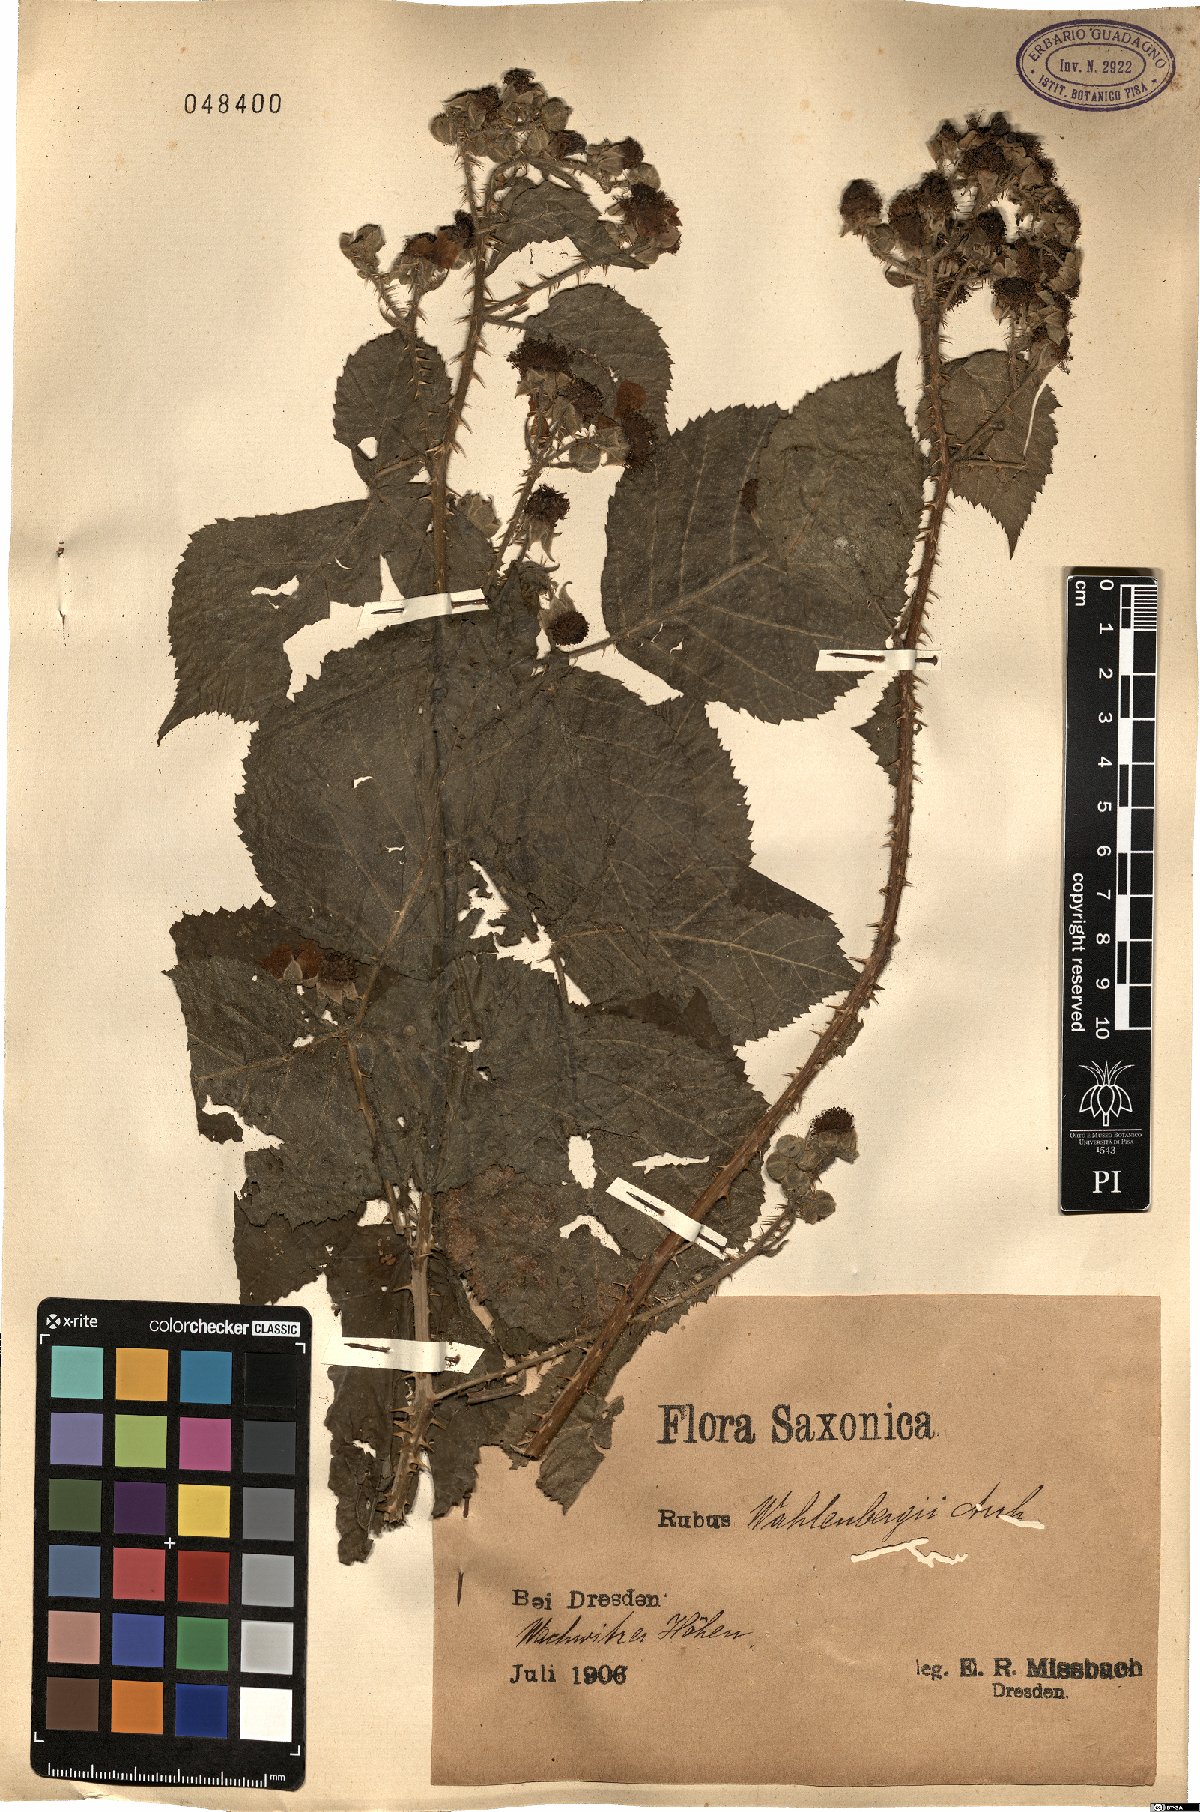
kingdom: Plantae
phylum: Tracheophyta
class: Magnoliopsida
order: Rosales
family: Rosaceae
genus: Rubus
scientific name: Rubus wahlbergii
